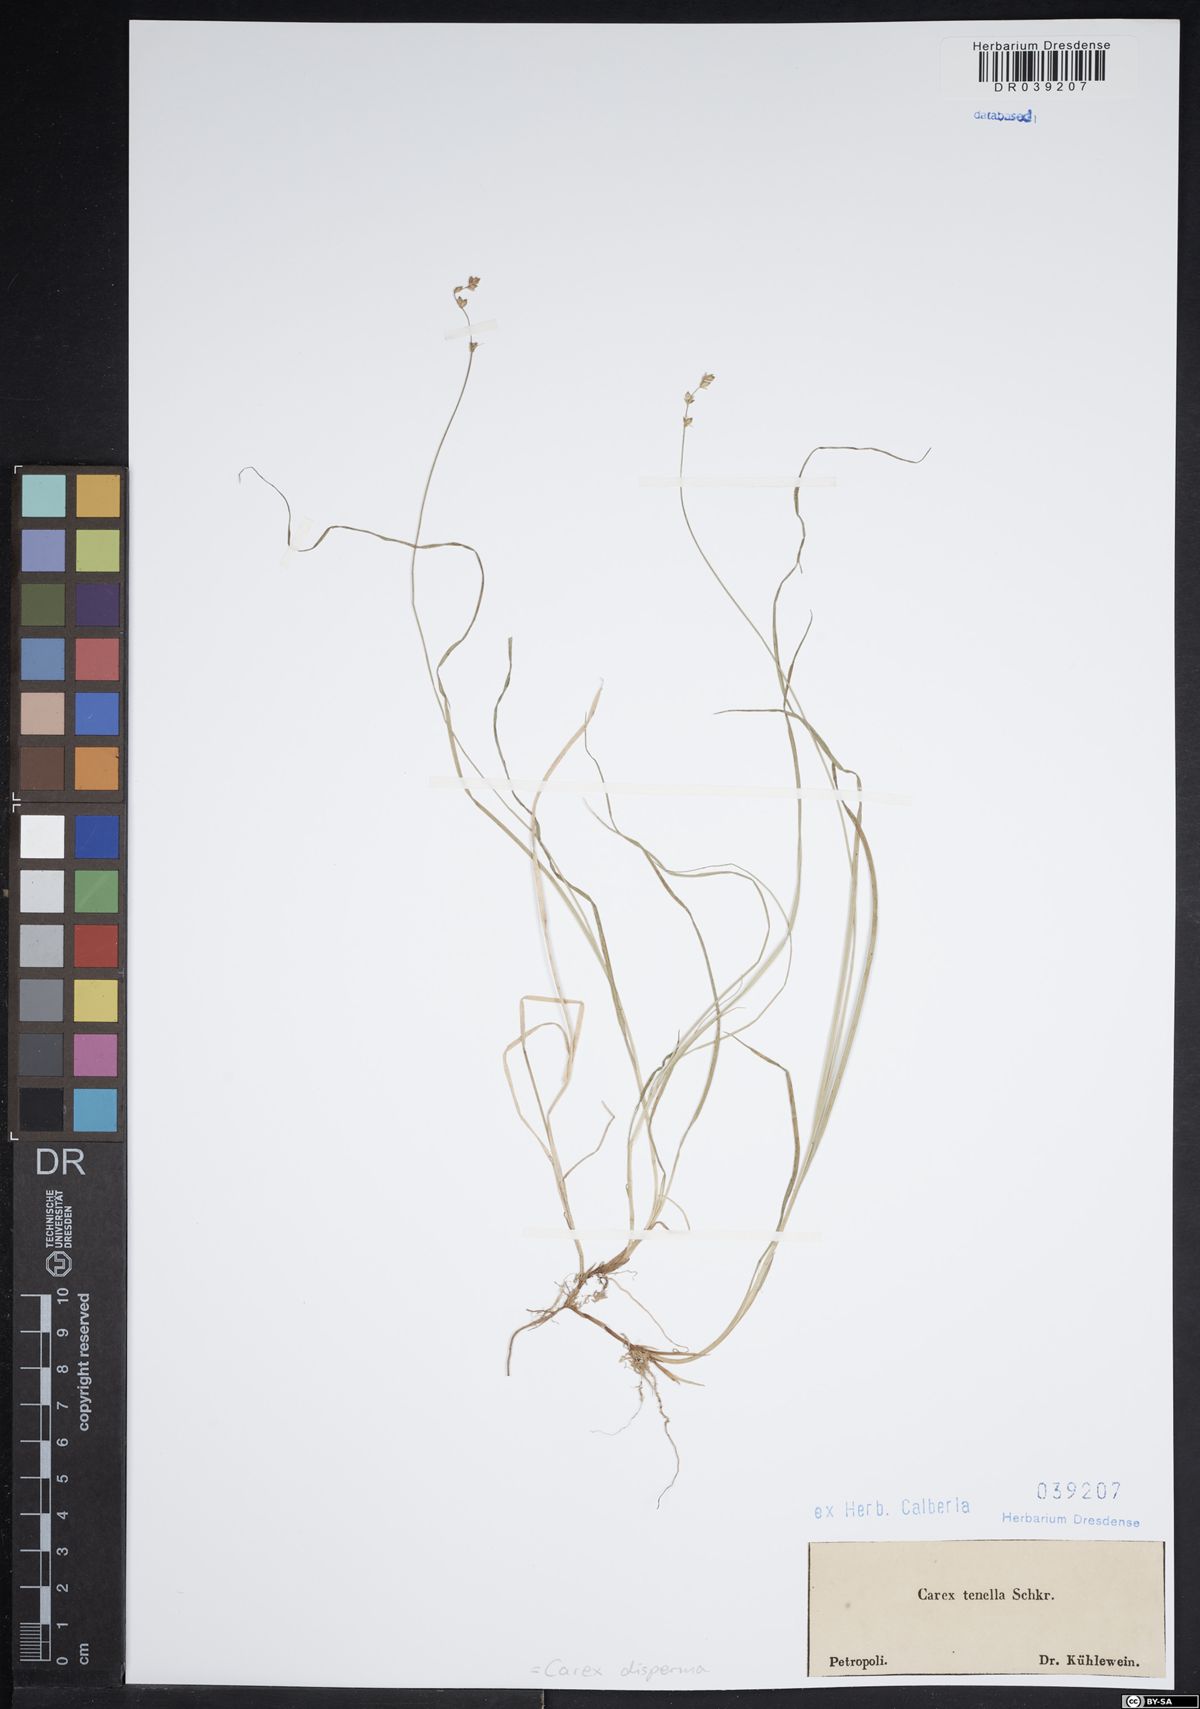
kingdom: Plantae
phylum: Tracheophyta
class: Liliopsida
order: Poales
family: Cyperaceae
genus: Carex
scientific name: Carex disperma
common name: Short-leaved sedge
